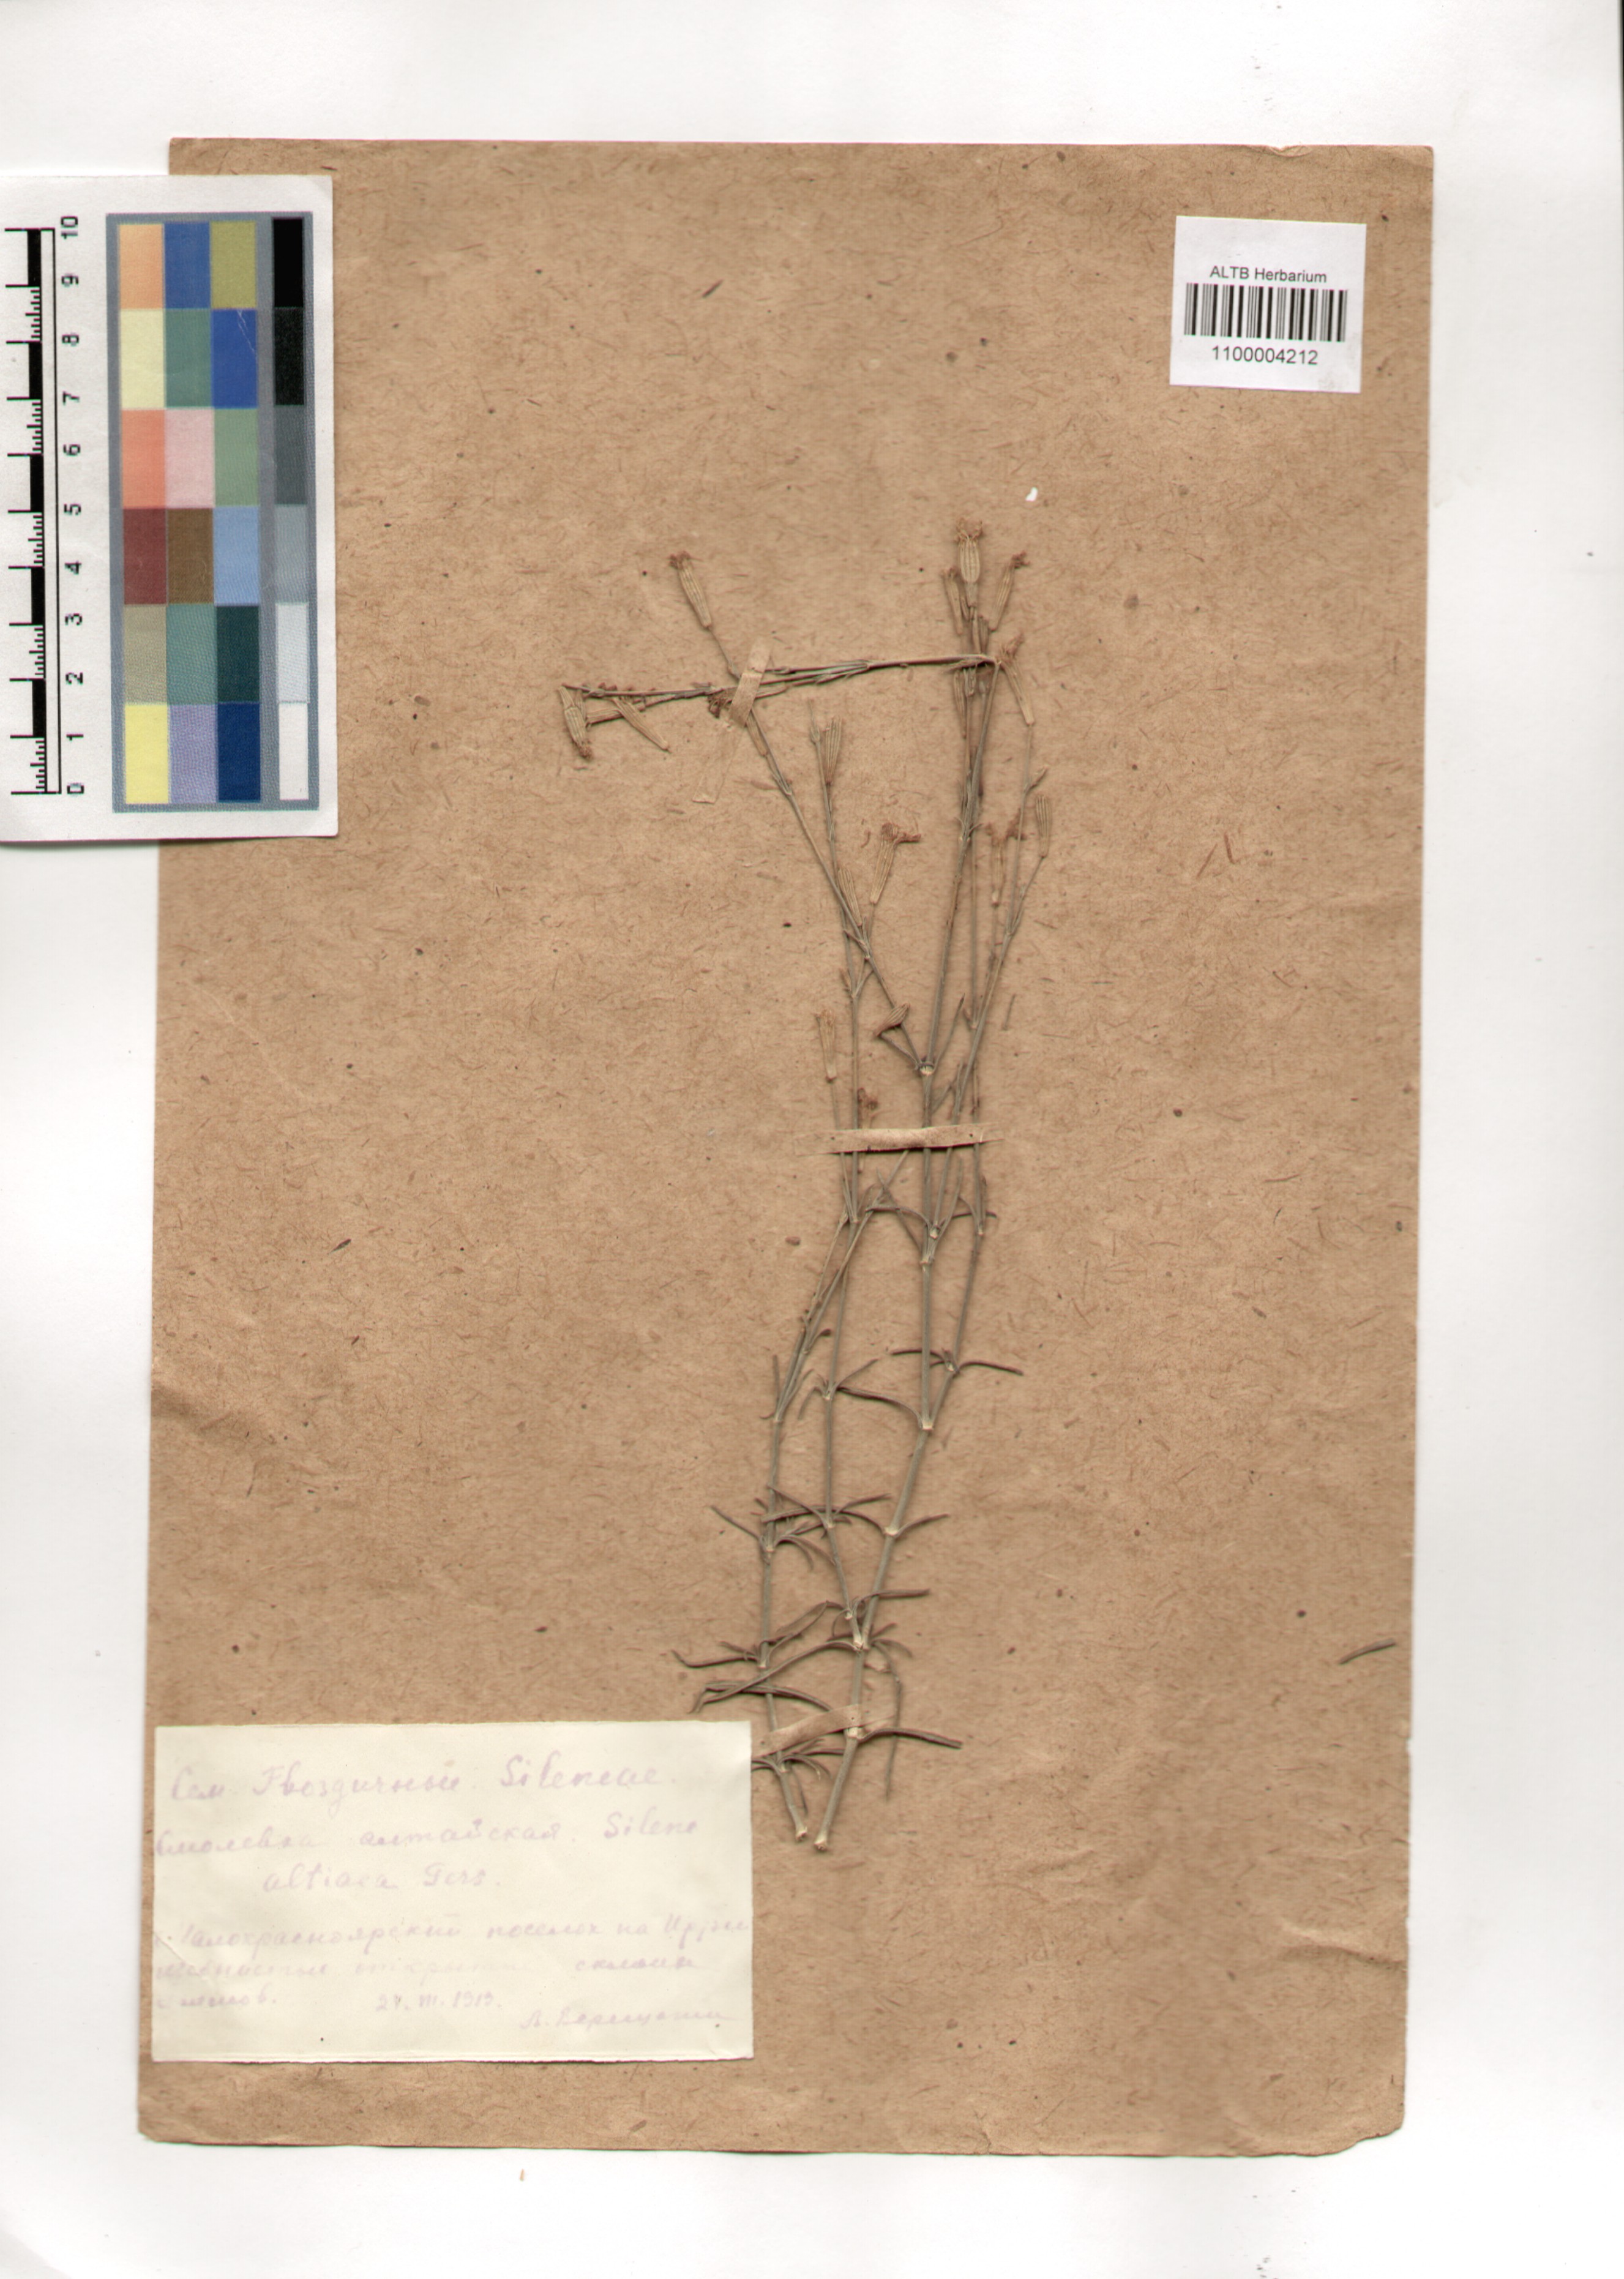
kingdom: Plantae
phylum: Tracheophyta
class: Magnoliopsida
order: Caryophyllales
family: Caryophyllaceae
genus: Silene
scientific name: Silene altaica
